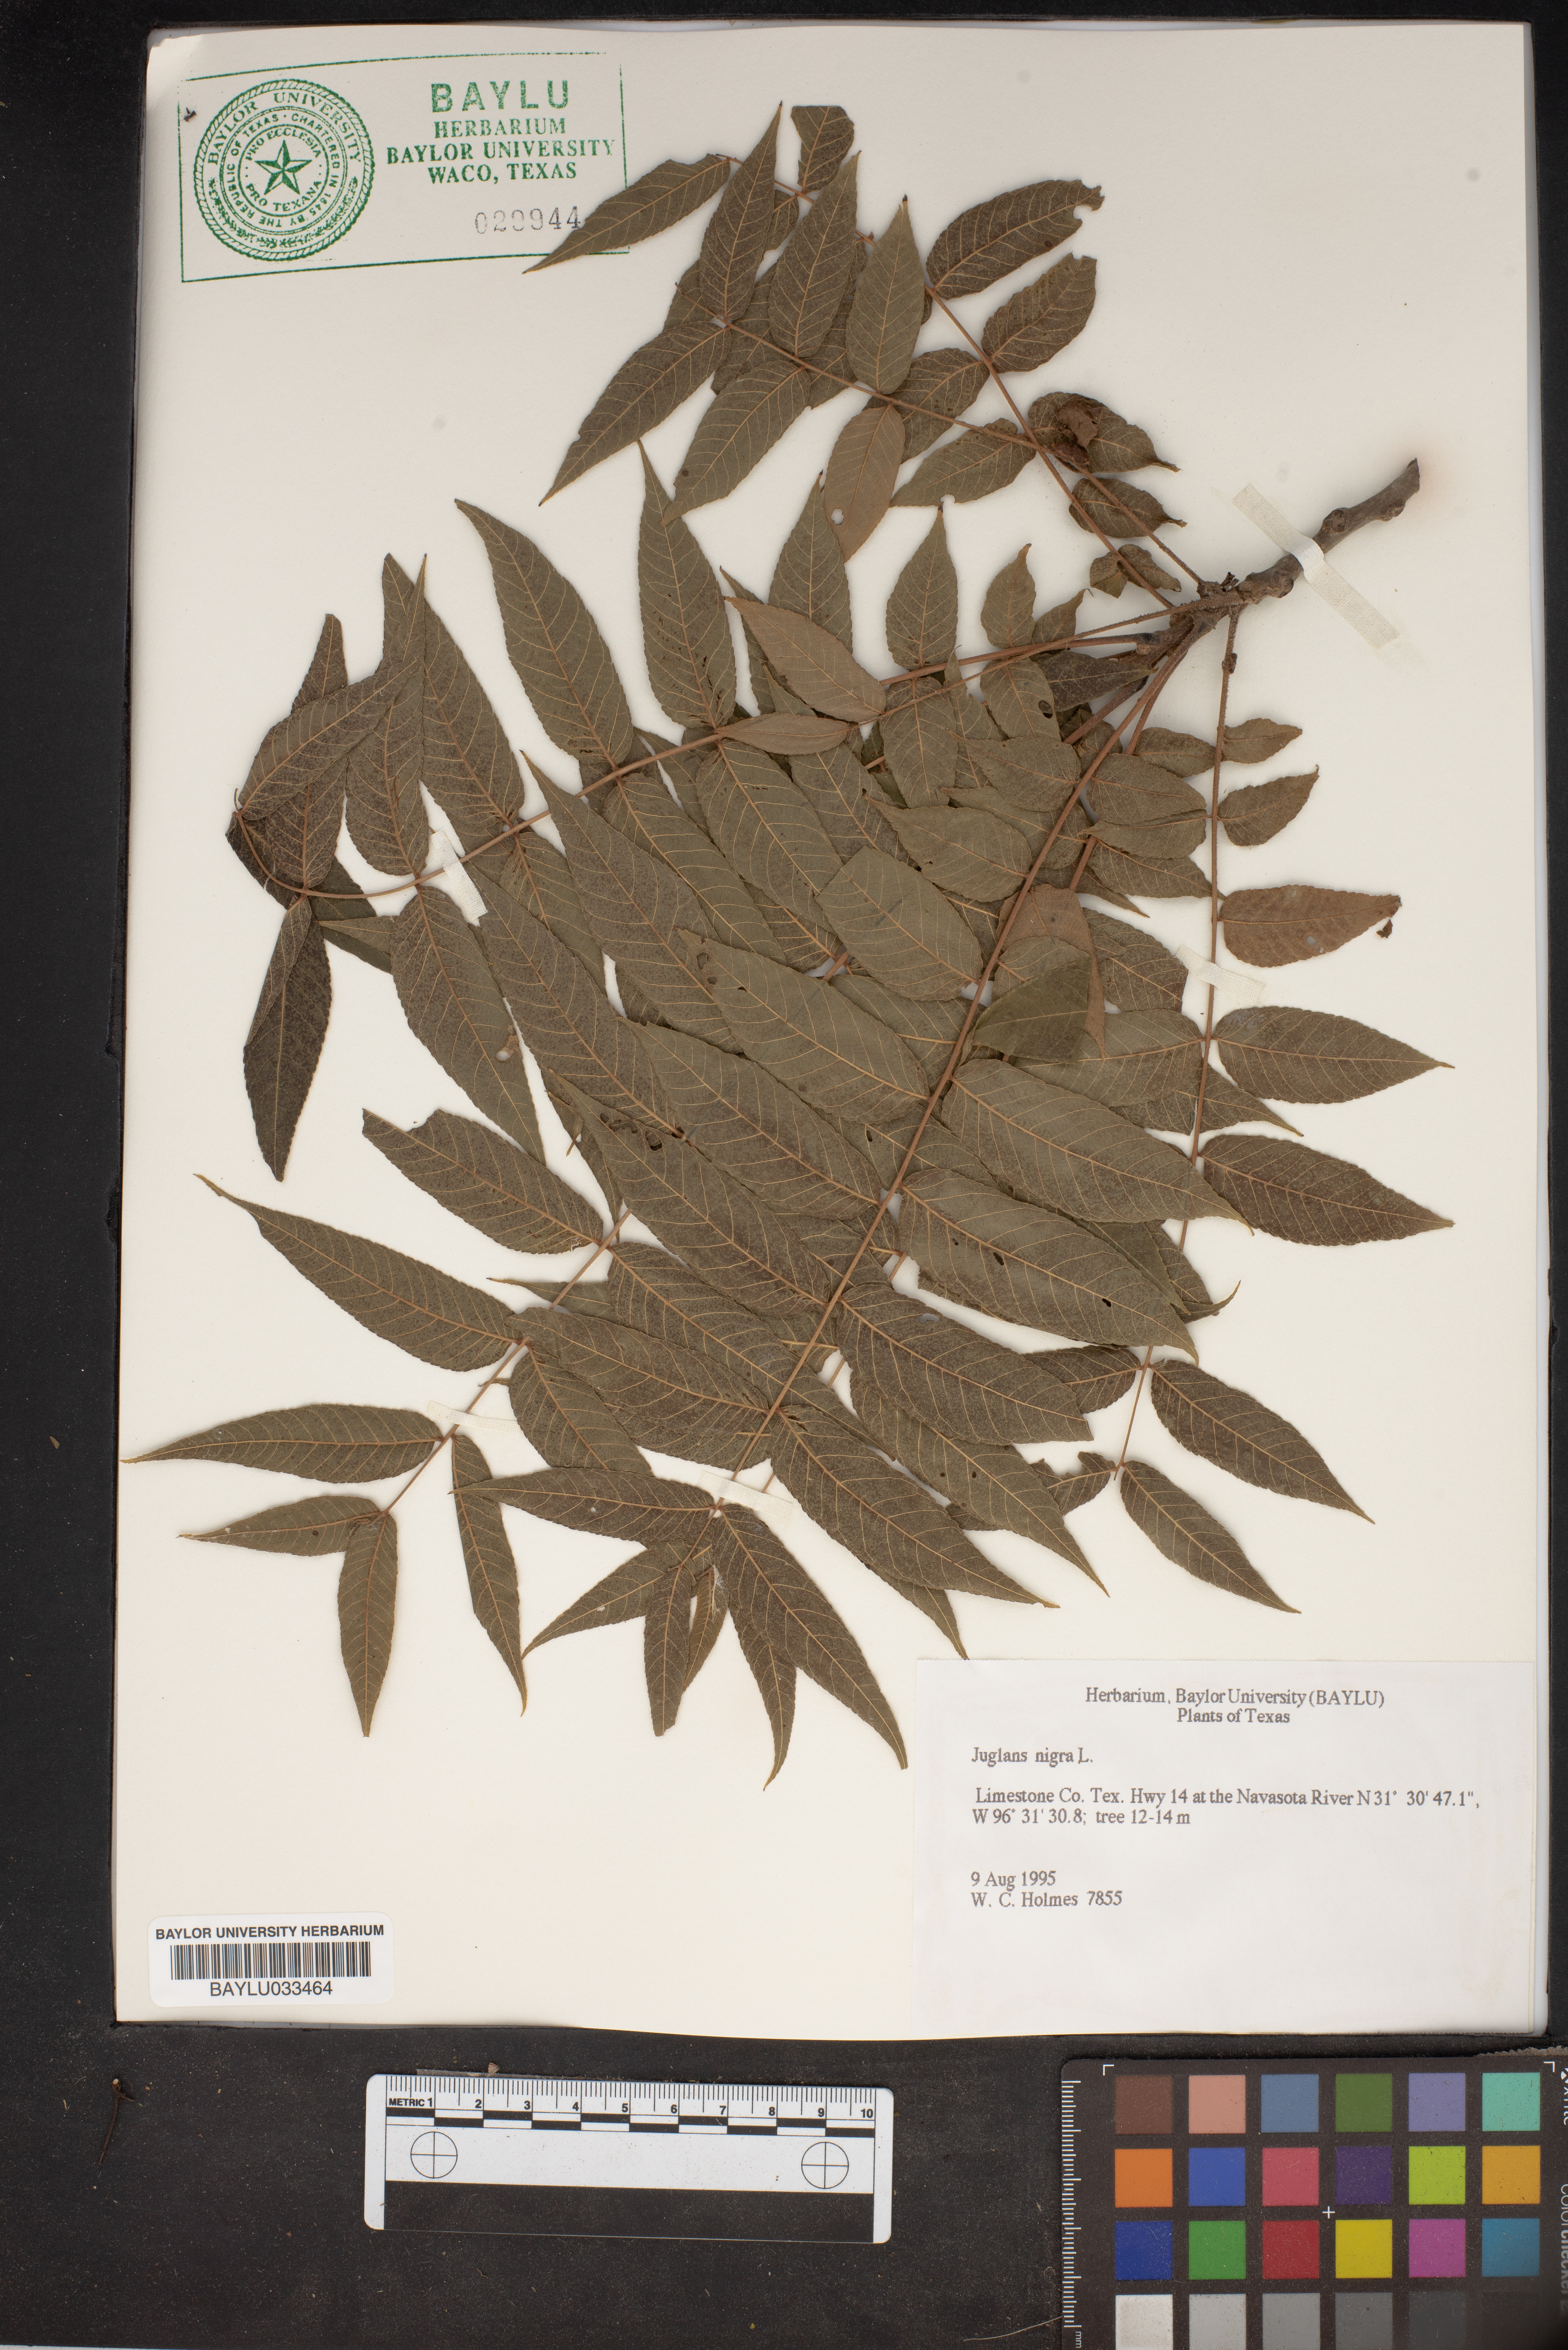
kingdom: Plantae
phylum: Tracheophyta
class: Magnoliopsida
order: Fagales
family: Juglandaceae
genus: Juglans
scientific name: Juglans nigra
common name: Black walnut
